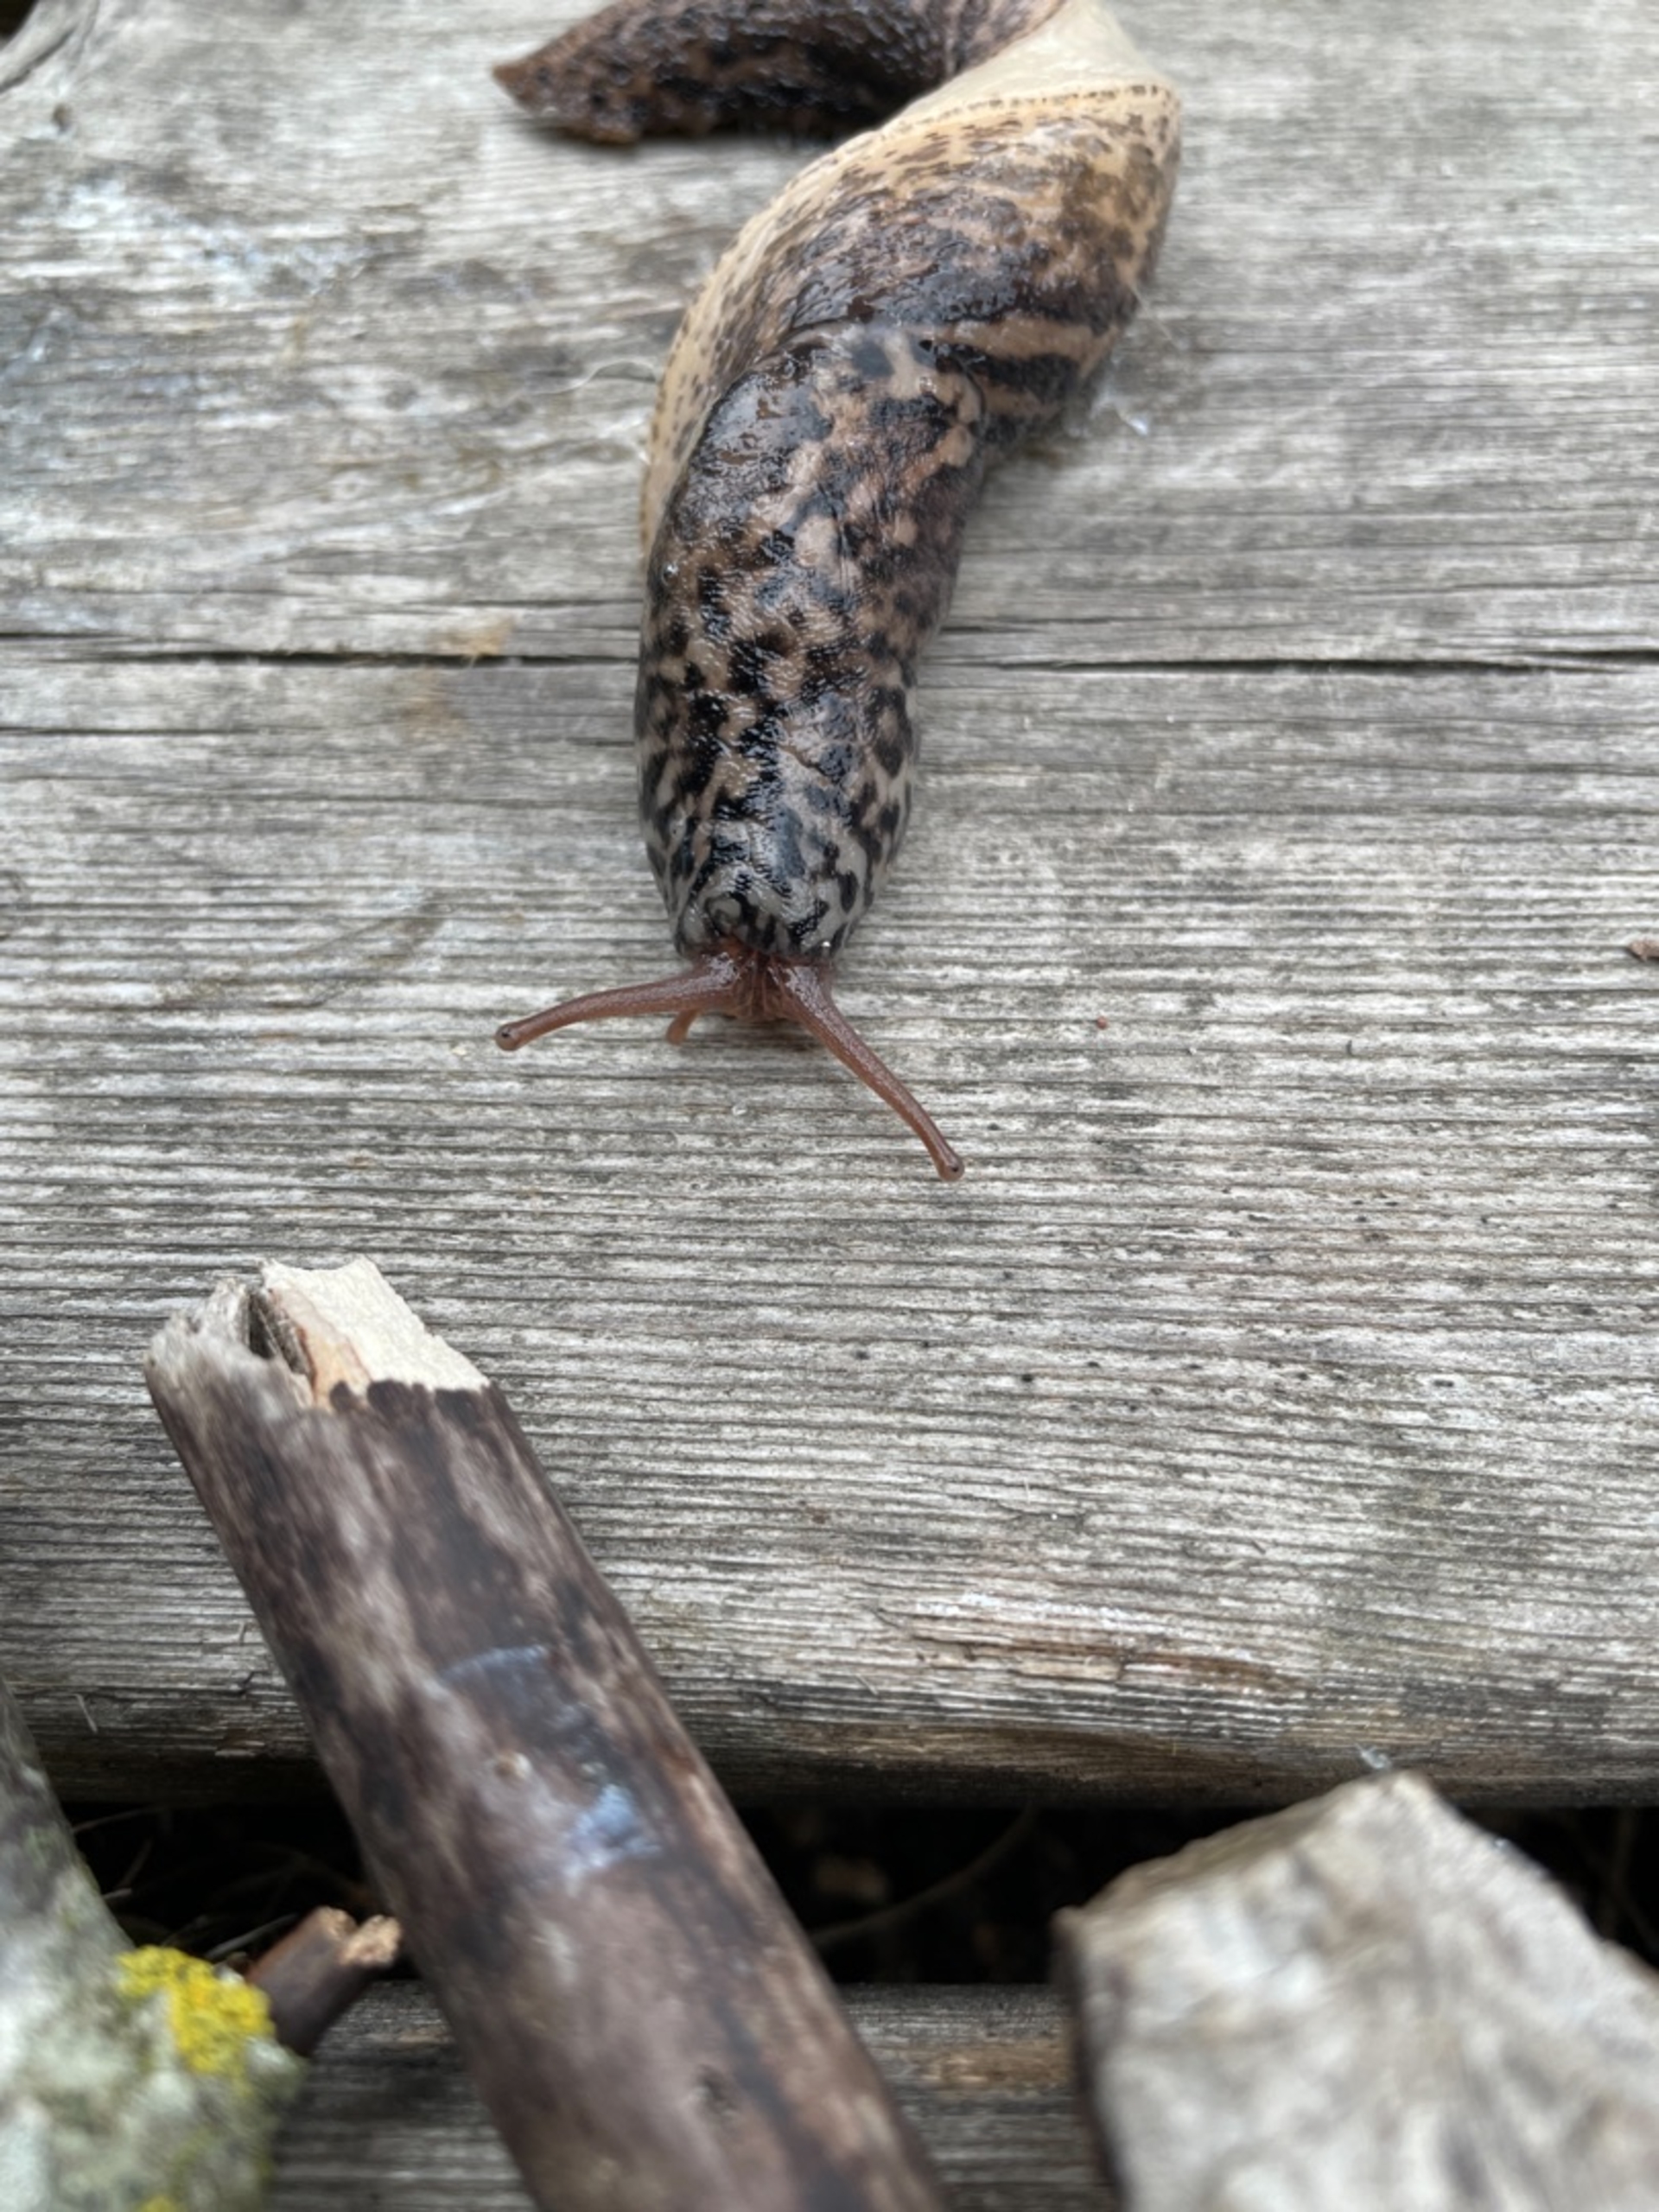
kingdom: Animalia
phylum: Mollusca
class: Gastropoda
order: Stylommatophora
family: Limacidae
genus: Limax
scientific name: Limax maximus
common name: Pantersnegl
